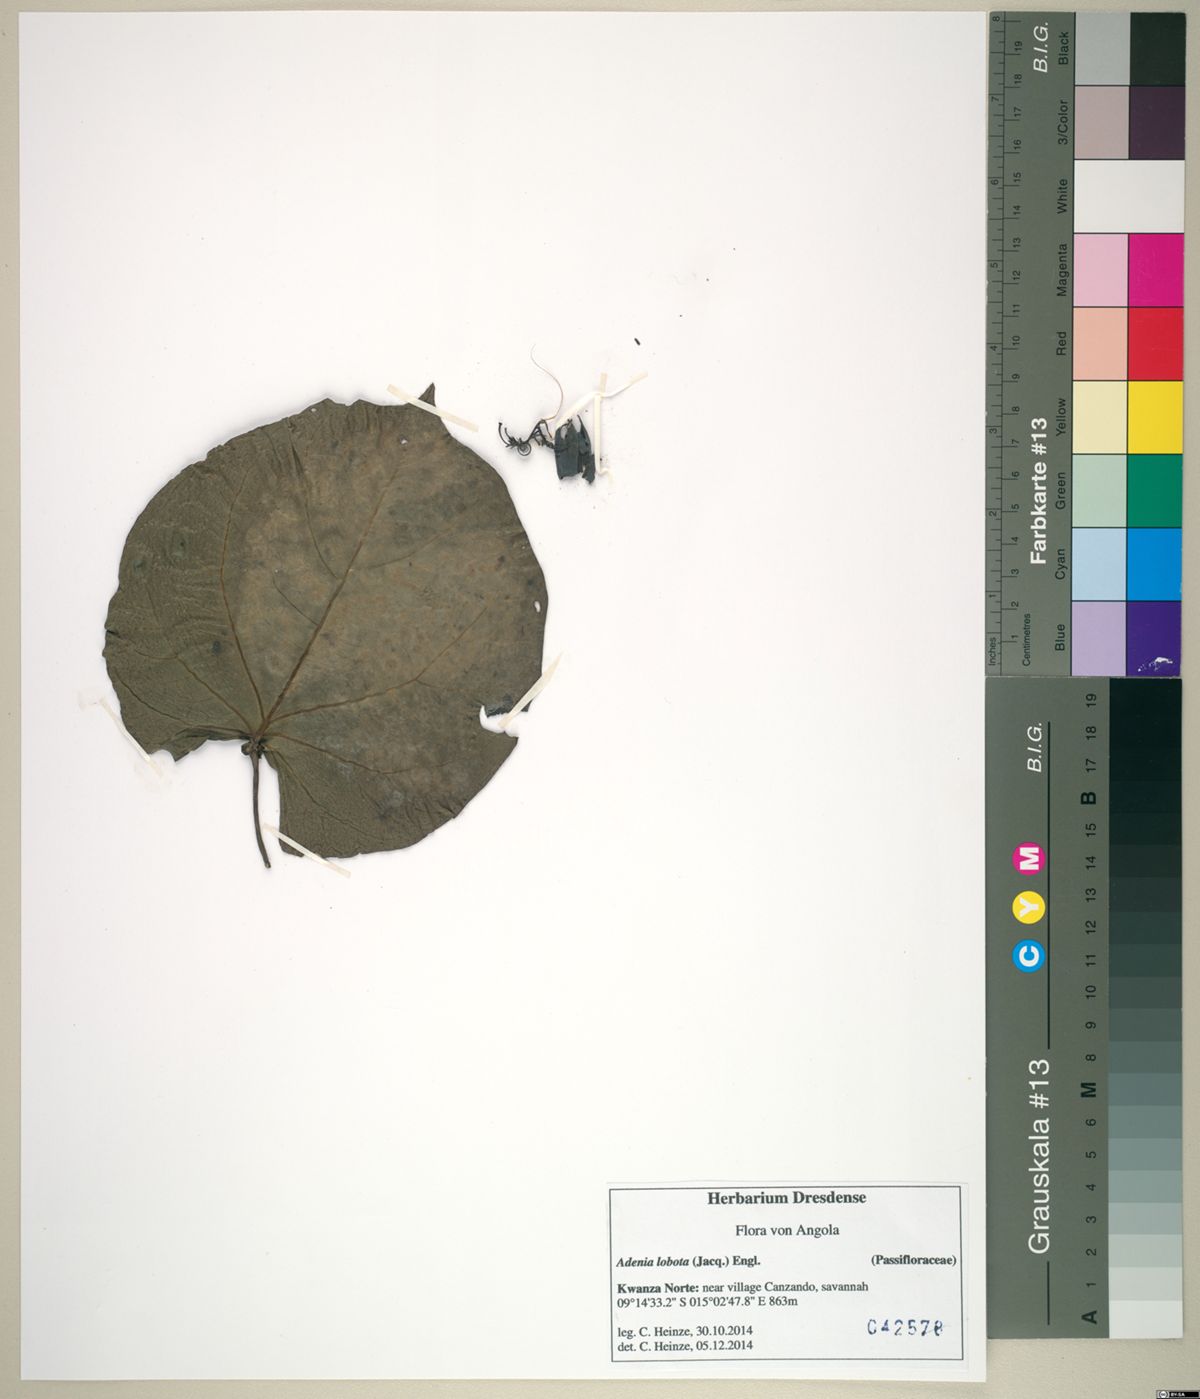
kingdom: Plantae
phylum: Tracheophyta
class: Magnoliopsida
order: Malpighiales
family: Passifloraceae
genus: Adenia
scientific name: Adenia lobata
